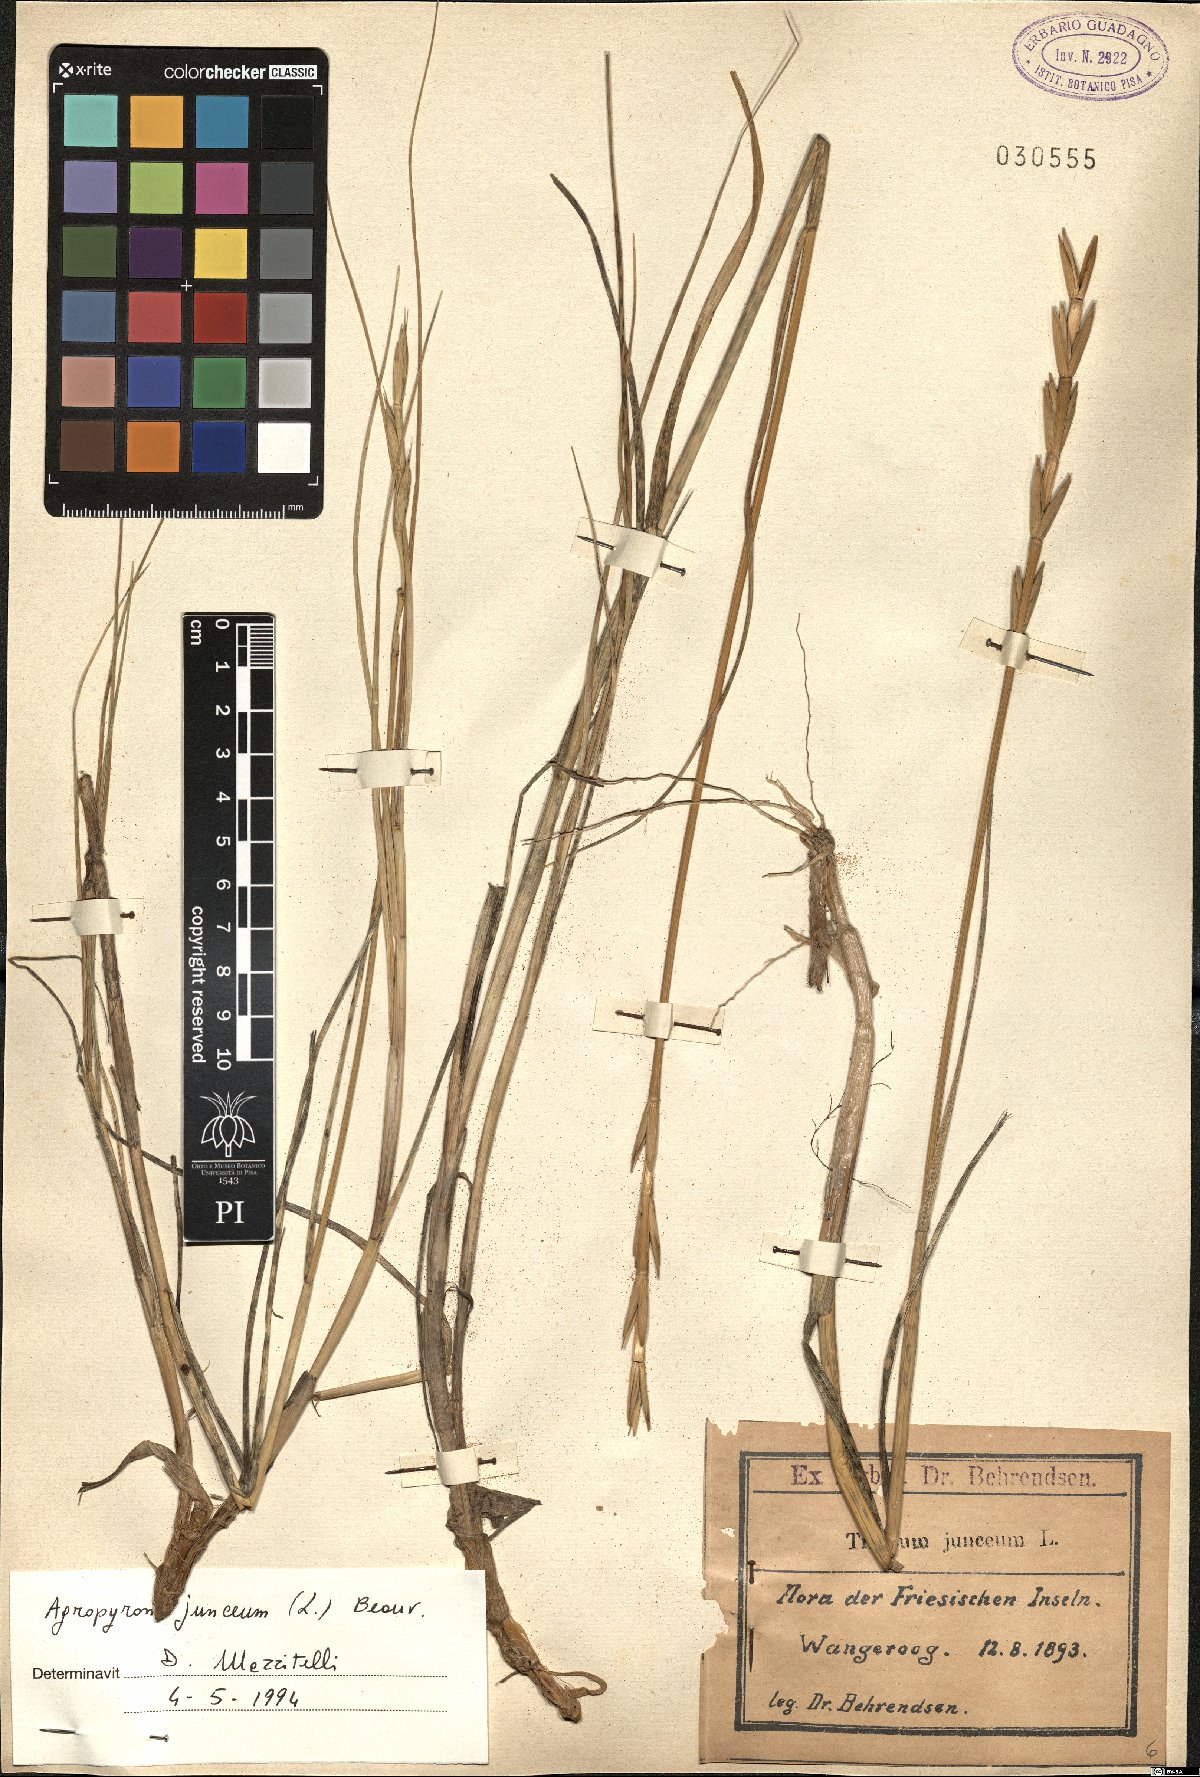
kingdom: Plantae
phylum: Tracheophyta
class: Liliopsida
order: Poales
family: Poaceae
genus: Thinopyrum
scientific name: Thinopyrum junceum
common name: Russian wheatgrass
